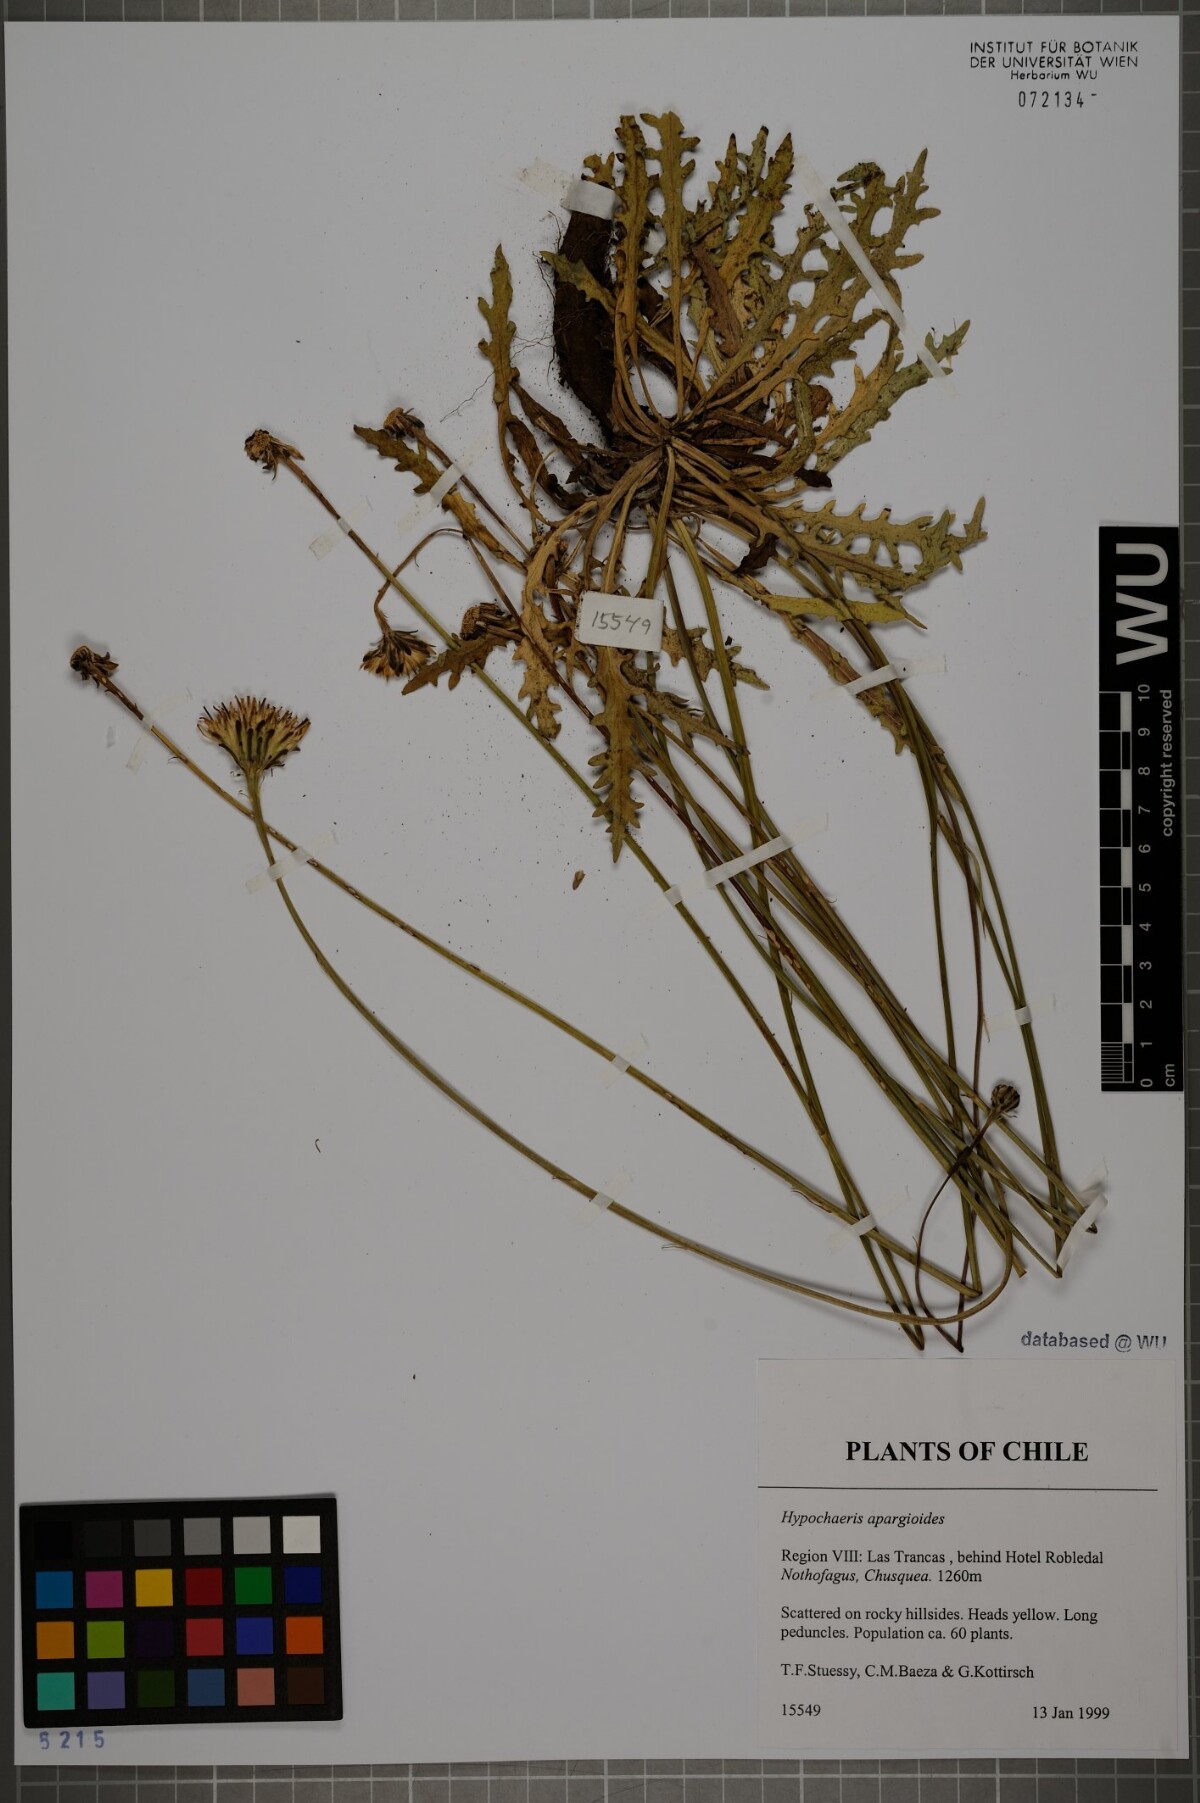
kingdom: Plantae
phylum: Tracheophyta
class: Magnoliopsida
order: Asterales
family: Asteraceae
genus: Hypochaeris
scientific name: Hypochaeris apargioides
